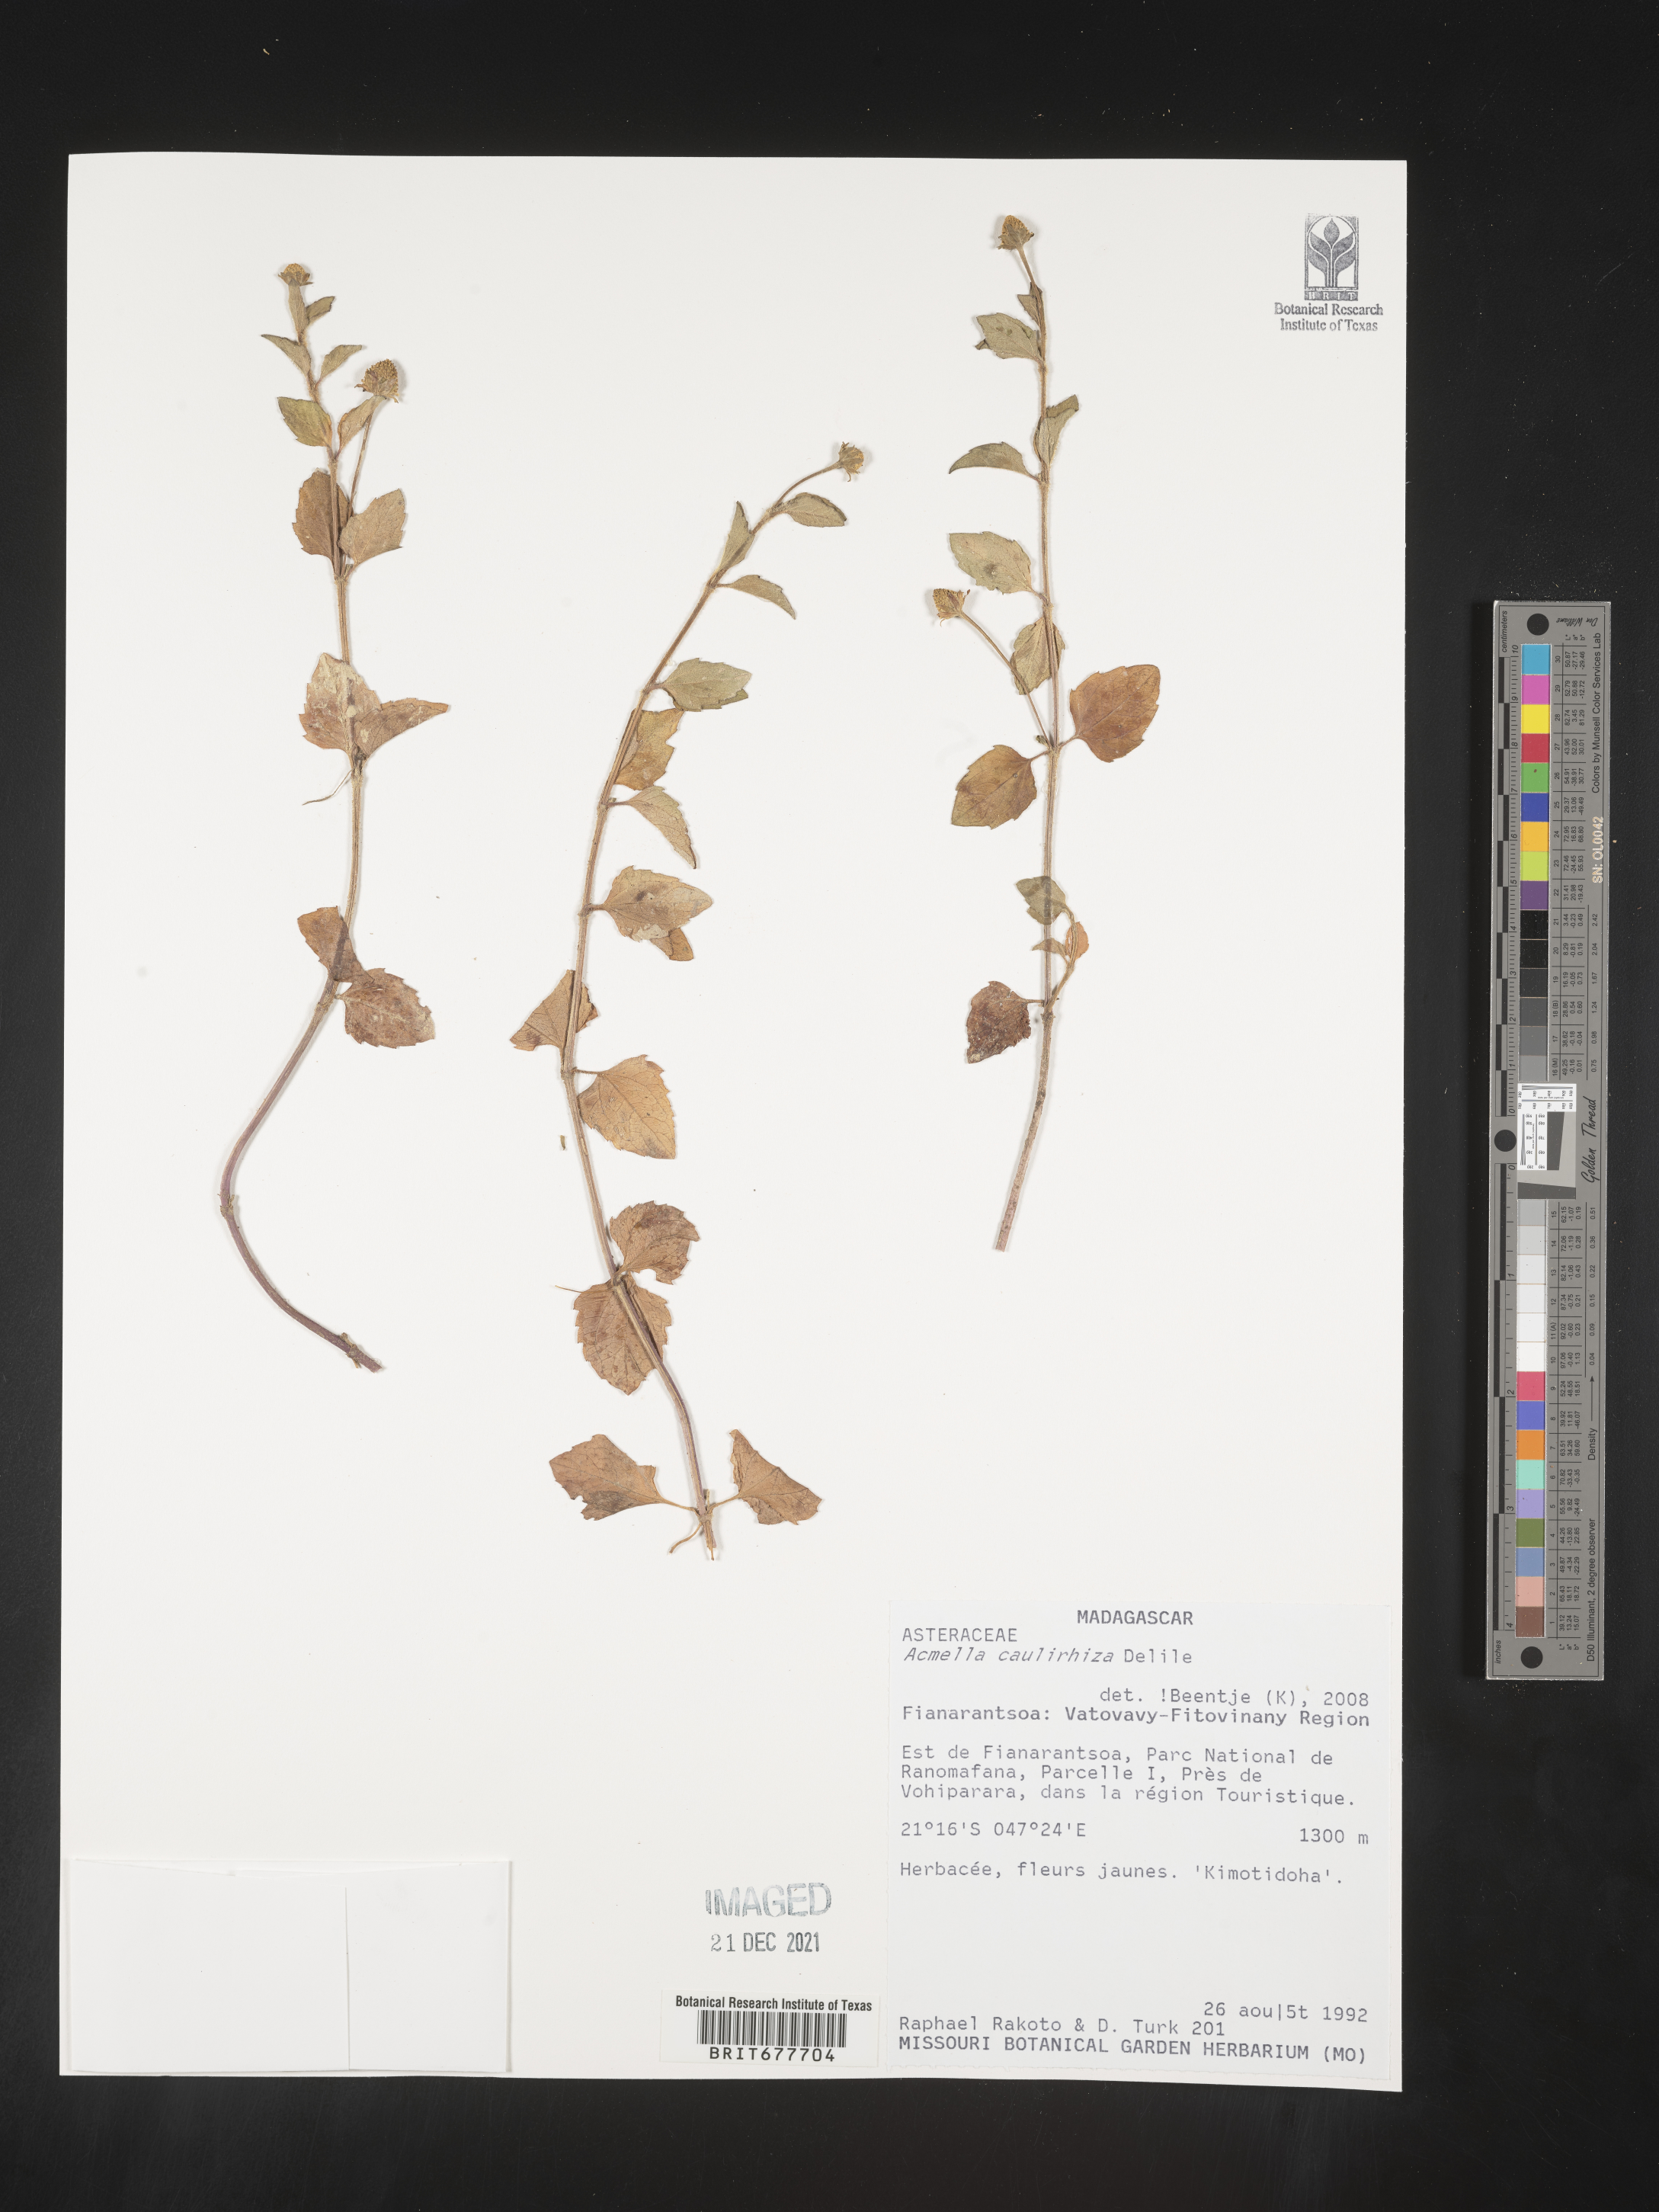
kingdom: Plantae
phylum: Tracheophyta
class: Magnoliopsida
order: Asterales
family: Asteraceae
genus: Acmella
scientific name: Acmella
